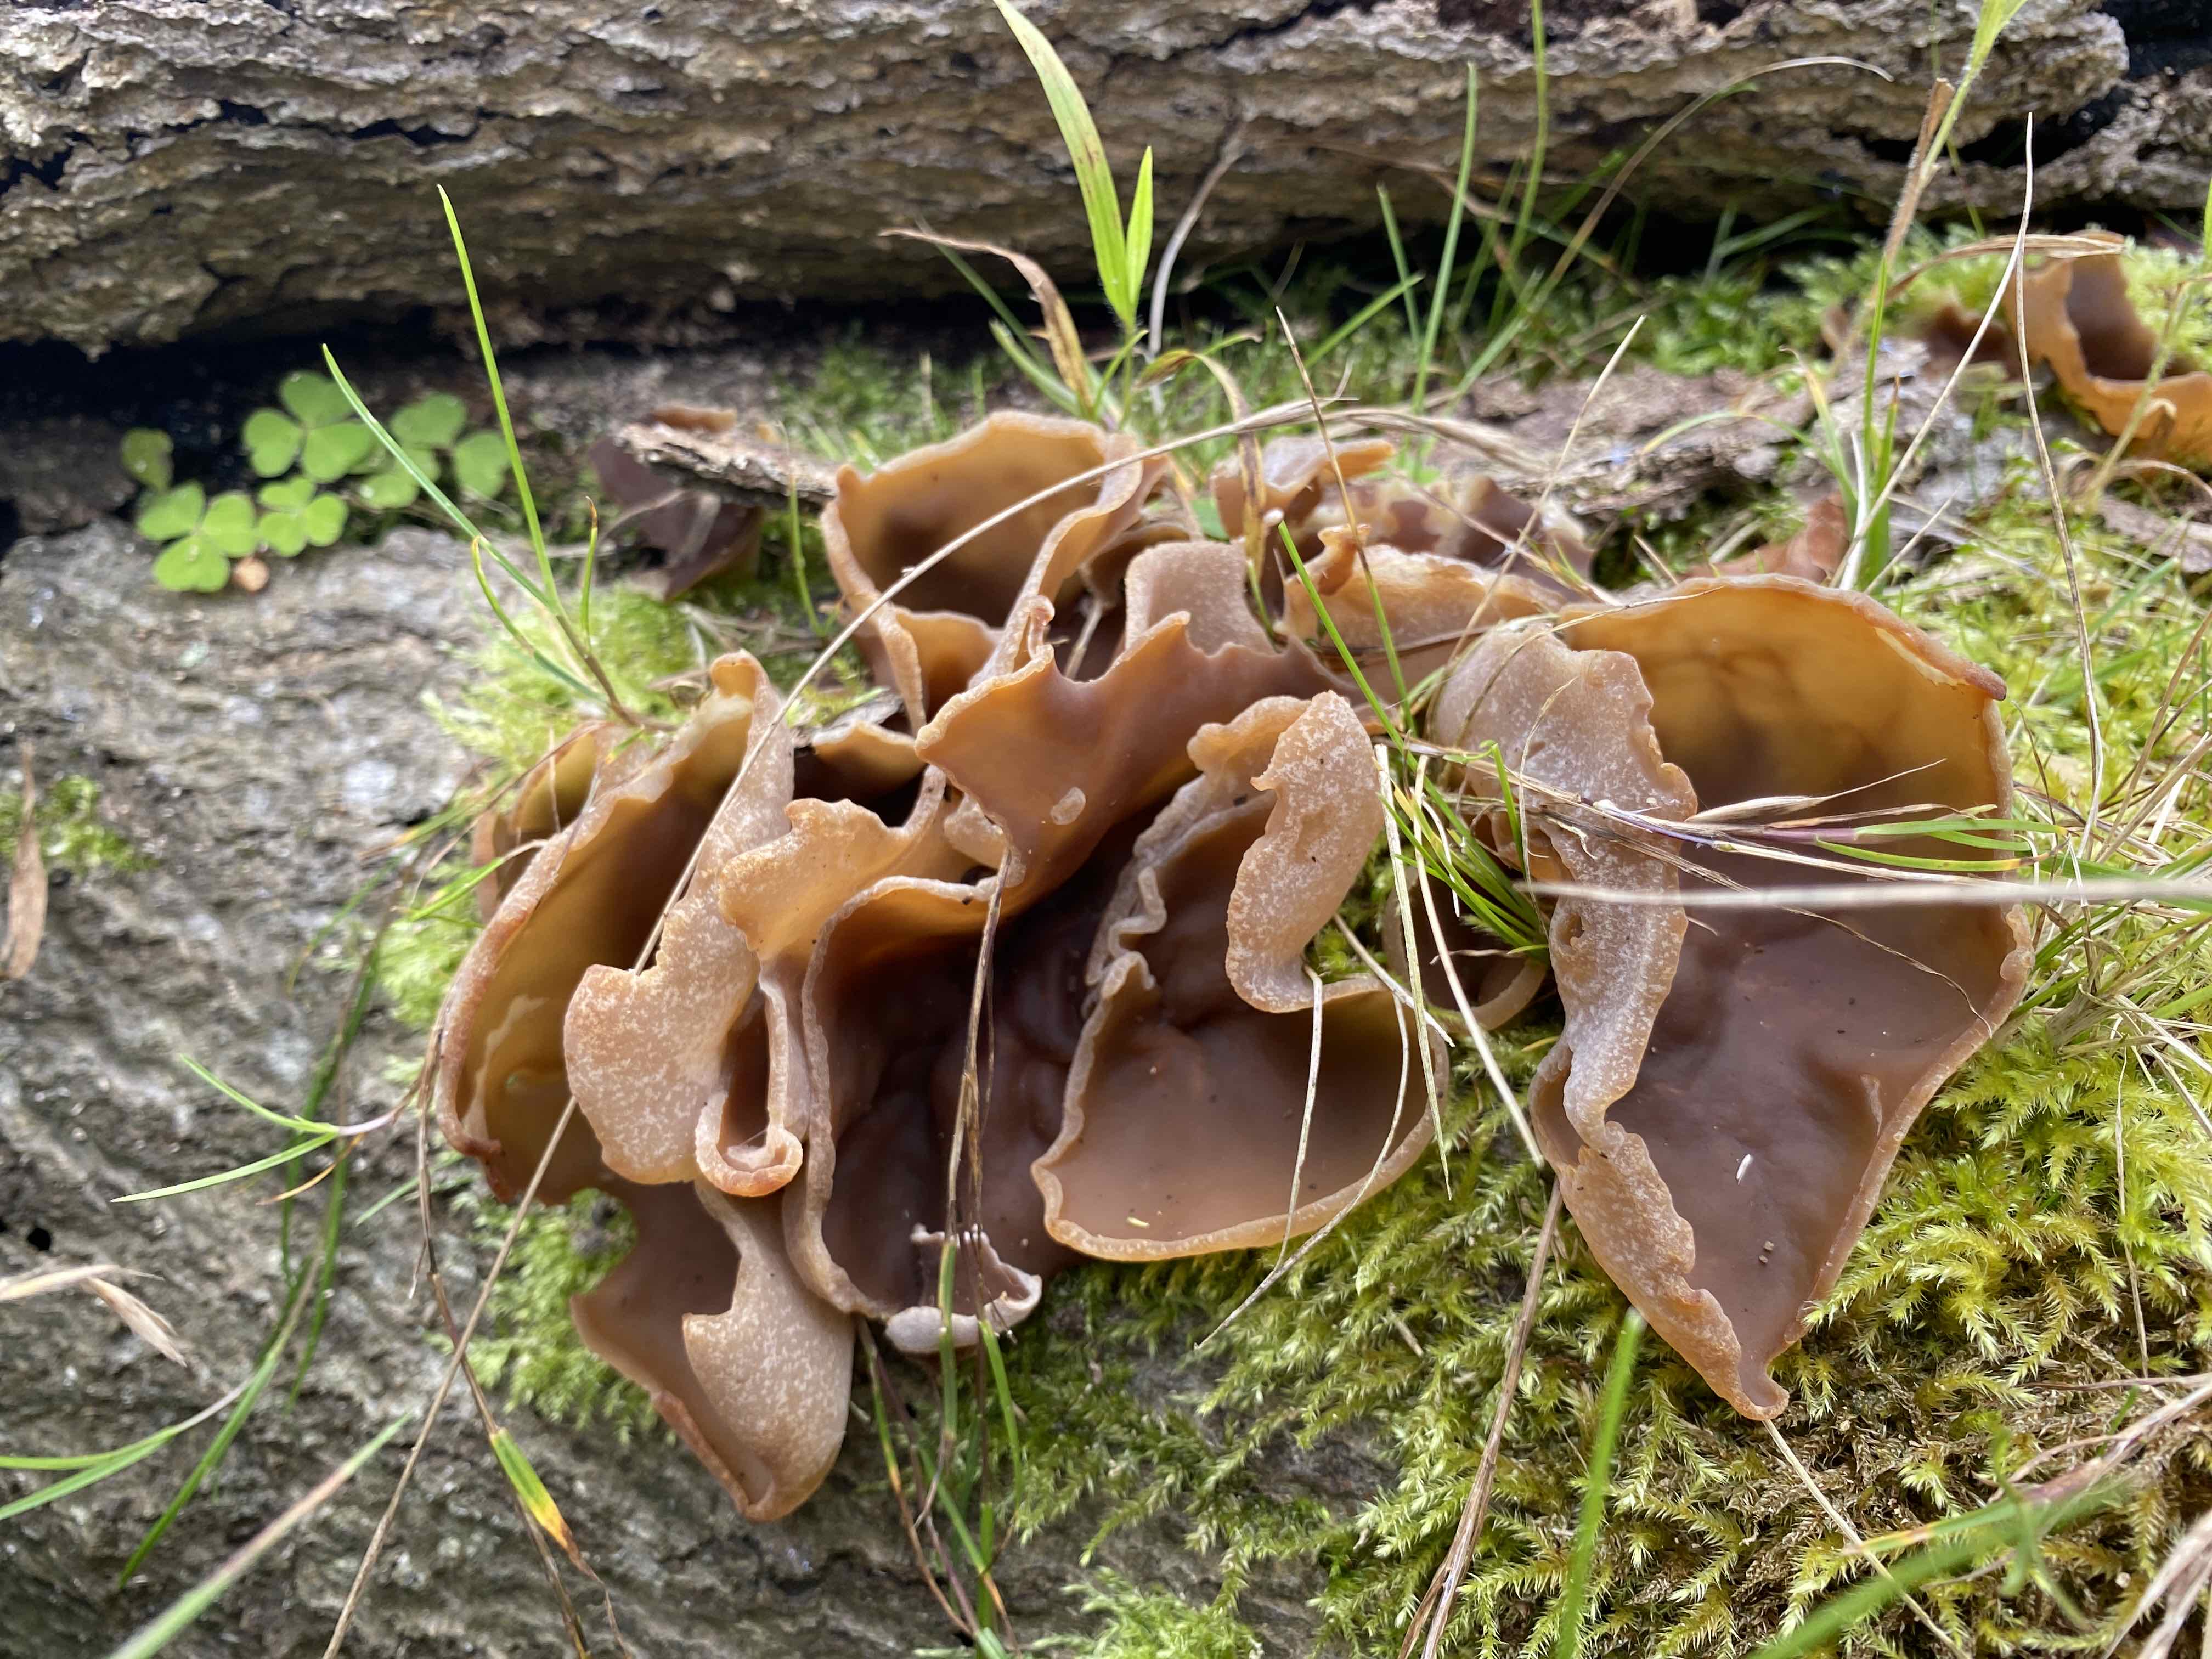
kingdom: Fungi
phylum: Ascomycota
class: Pezizomycetes
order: Pezizales
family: Pezizaceae
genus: Peziza
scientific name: Peziza varia
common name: Ved-bægersvamp
